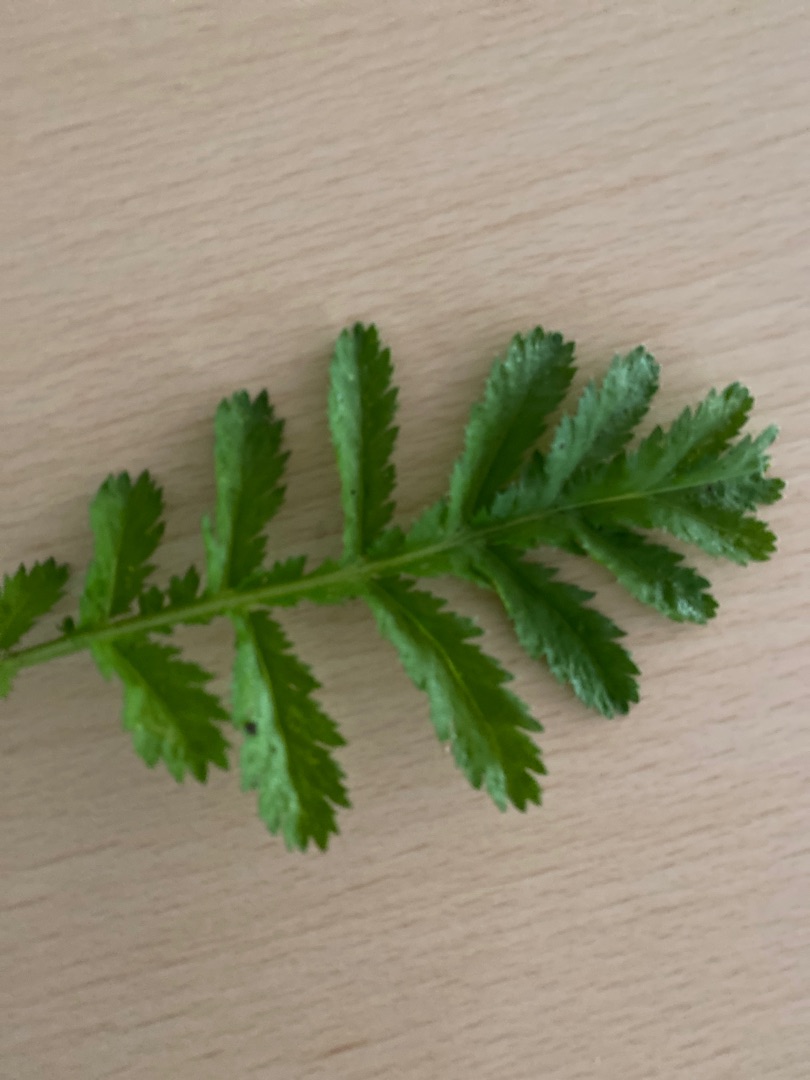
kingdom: Plantae
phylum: Tracheophyta
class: Magnoliopsida
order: Asterales
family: Asteraceae
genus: Tanacetum
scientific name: Tanacetum vulgare
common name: Rejnfan
